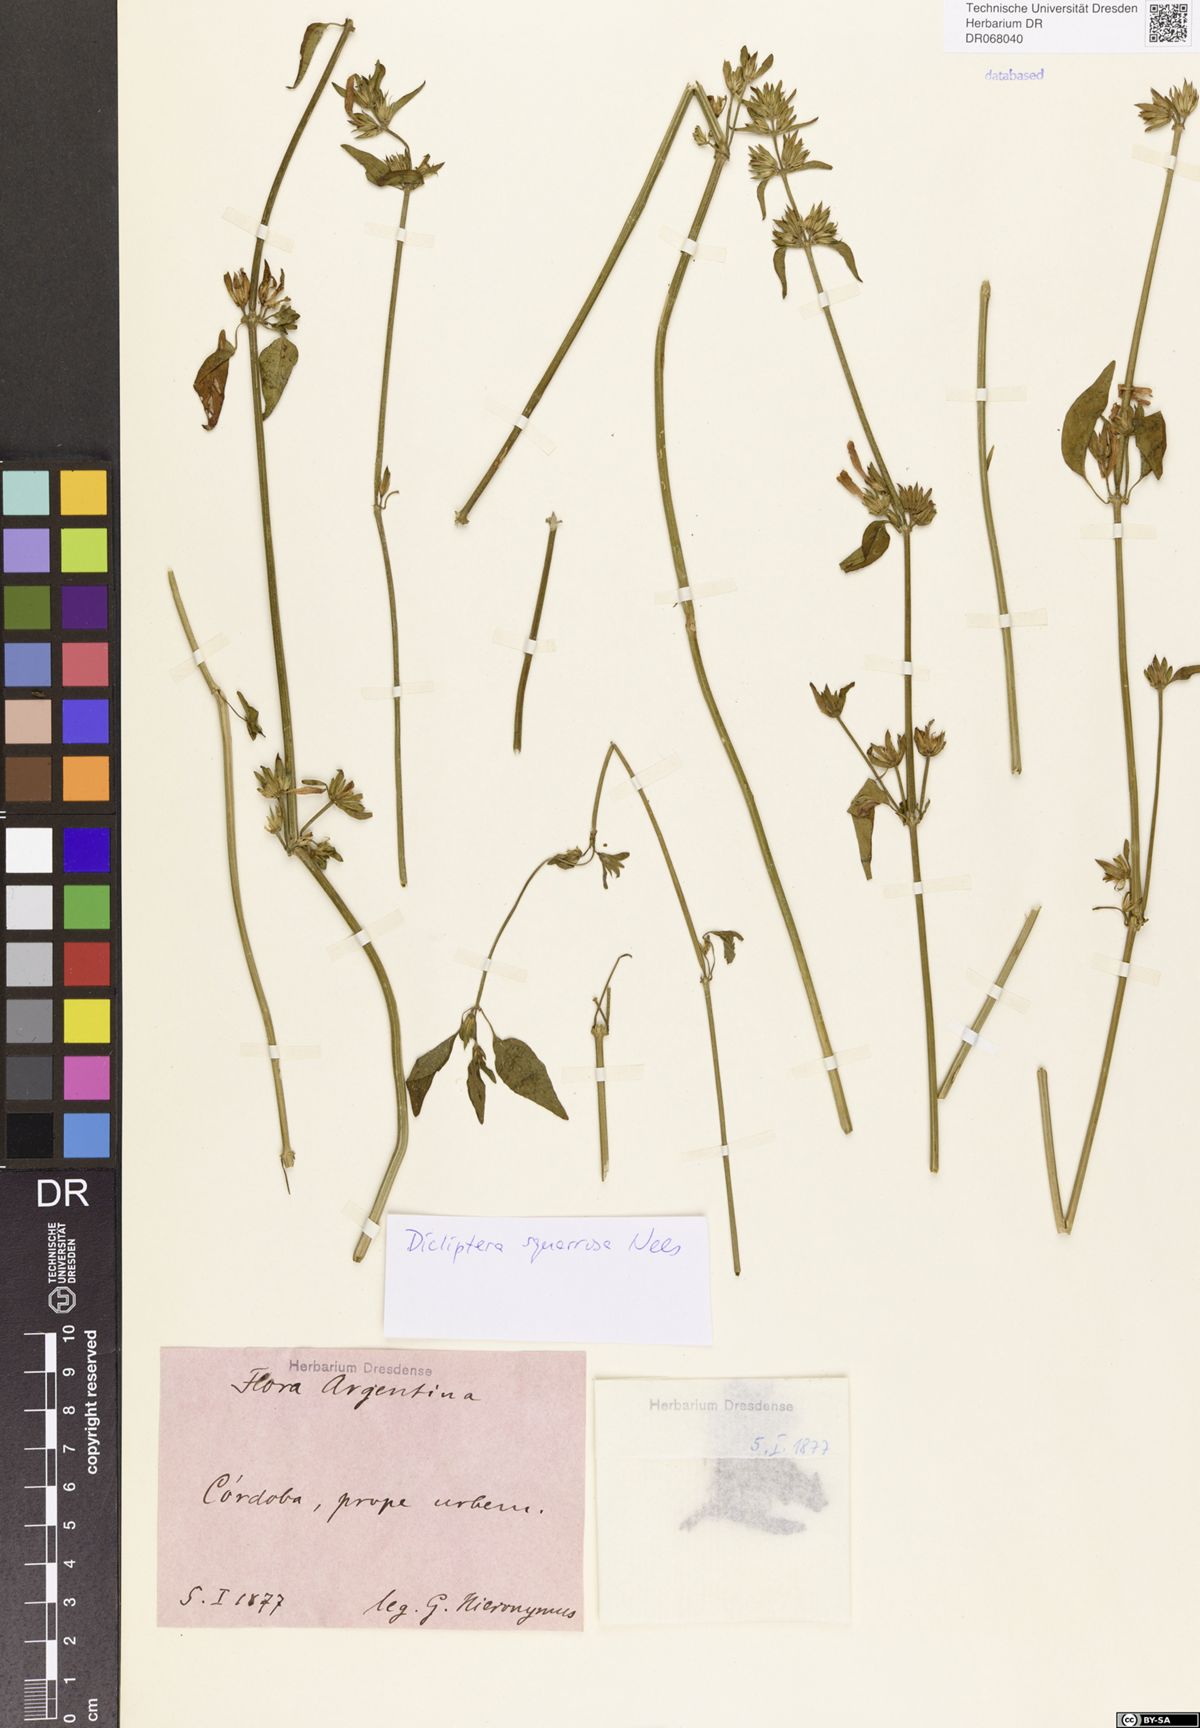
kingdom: Plantae
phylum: Tracheophyta
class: Magnoliopsida
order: Lamiales
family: Acanthaceae
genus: Dicliptera
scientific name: Dicliptera squarrosa
